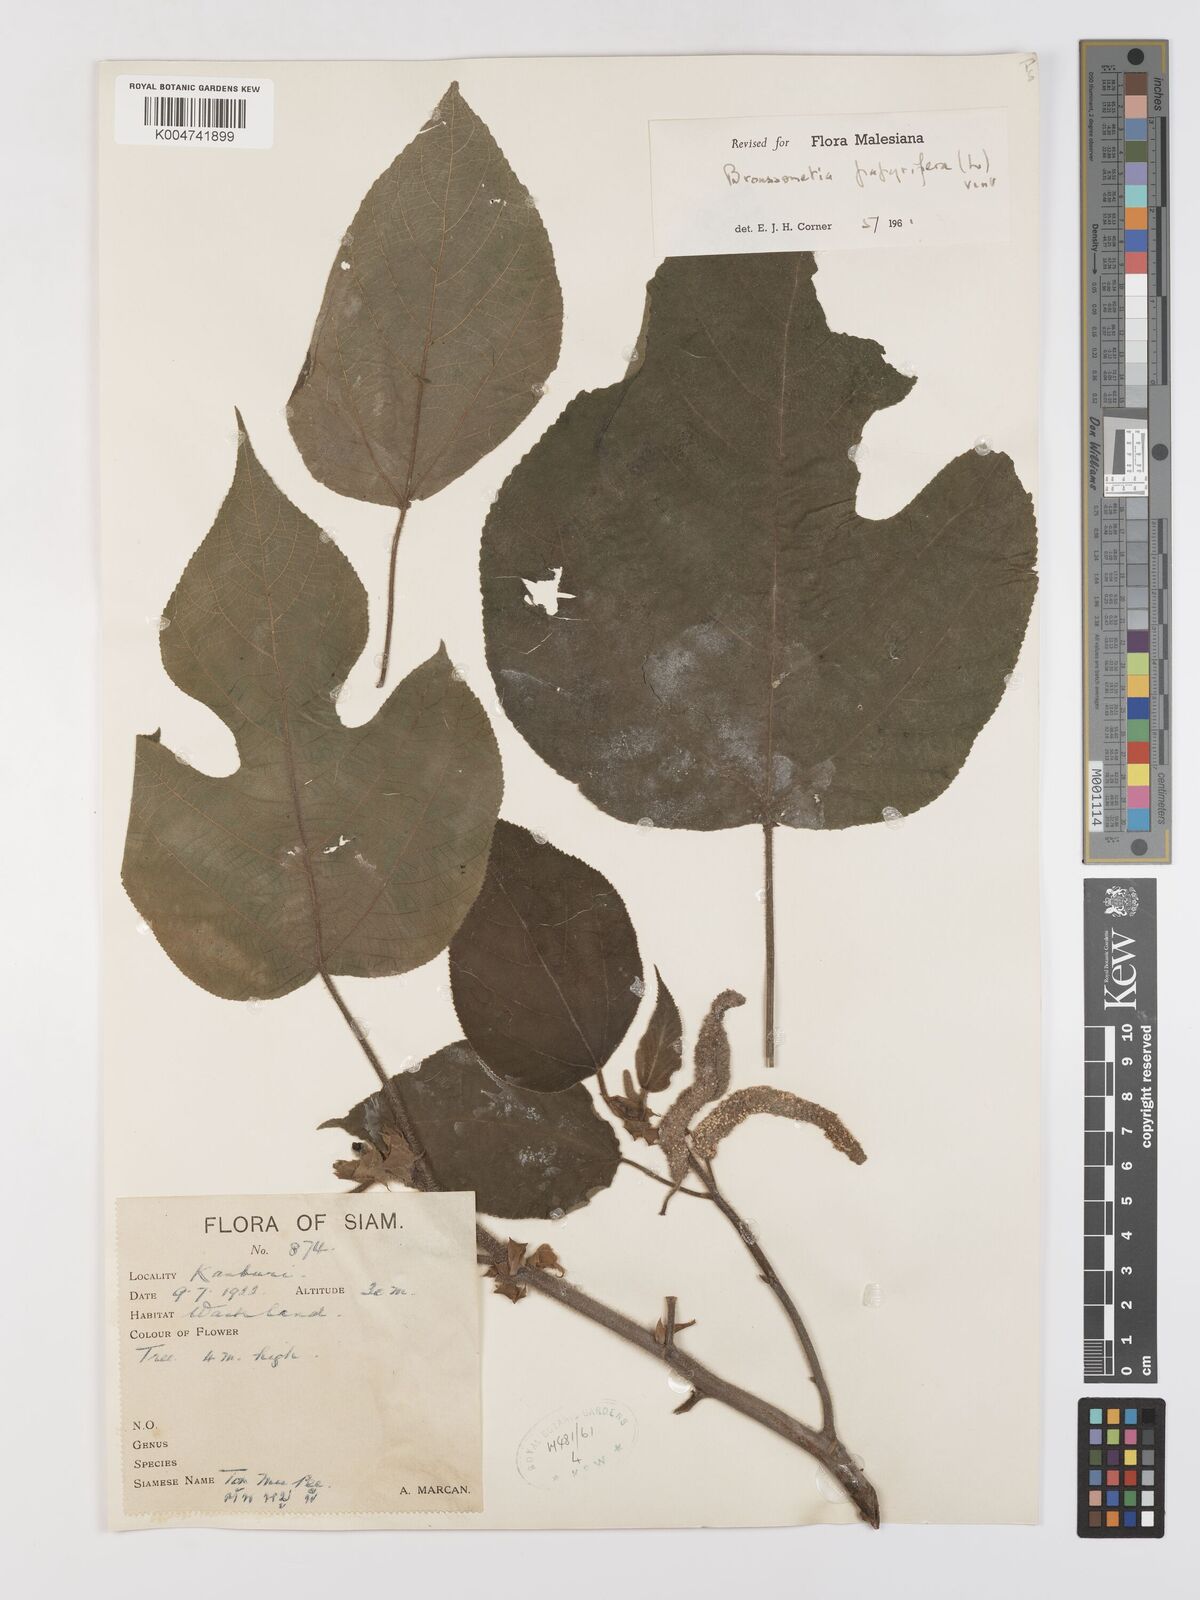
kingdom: Plantae
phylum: Tracheophyta
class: Magnoliopsida
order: Rosales
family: Moraceae
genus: Broussonetia
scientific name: Broussonetia papyrifera
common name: Paper mulberry
